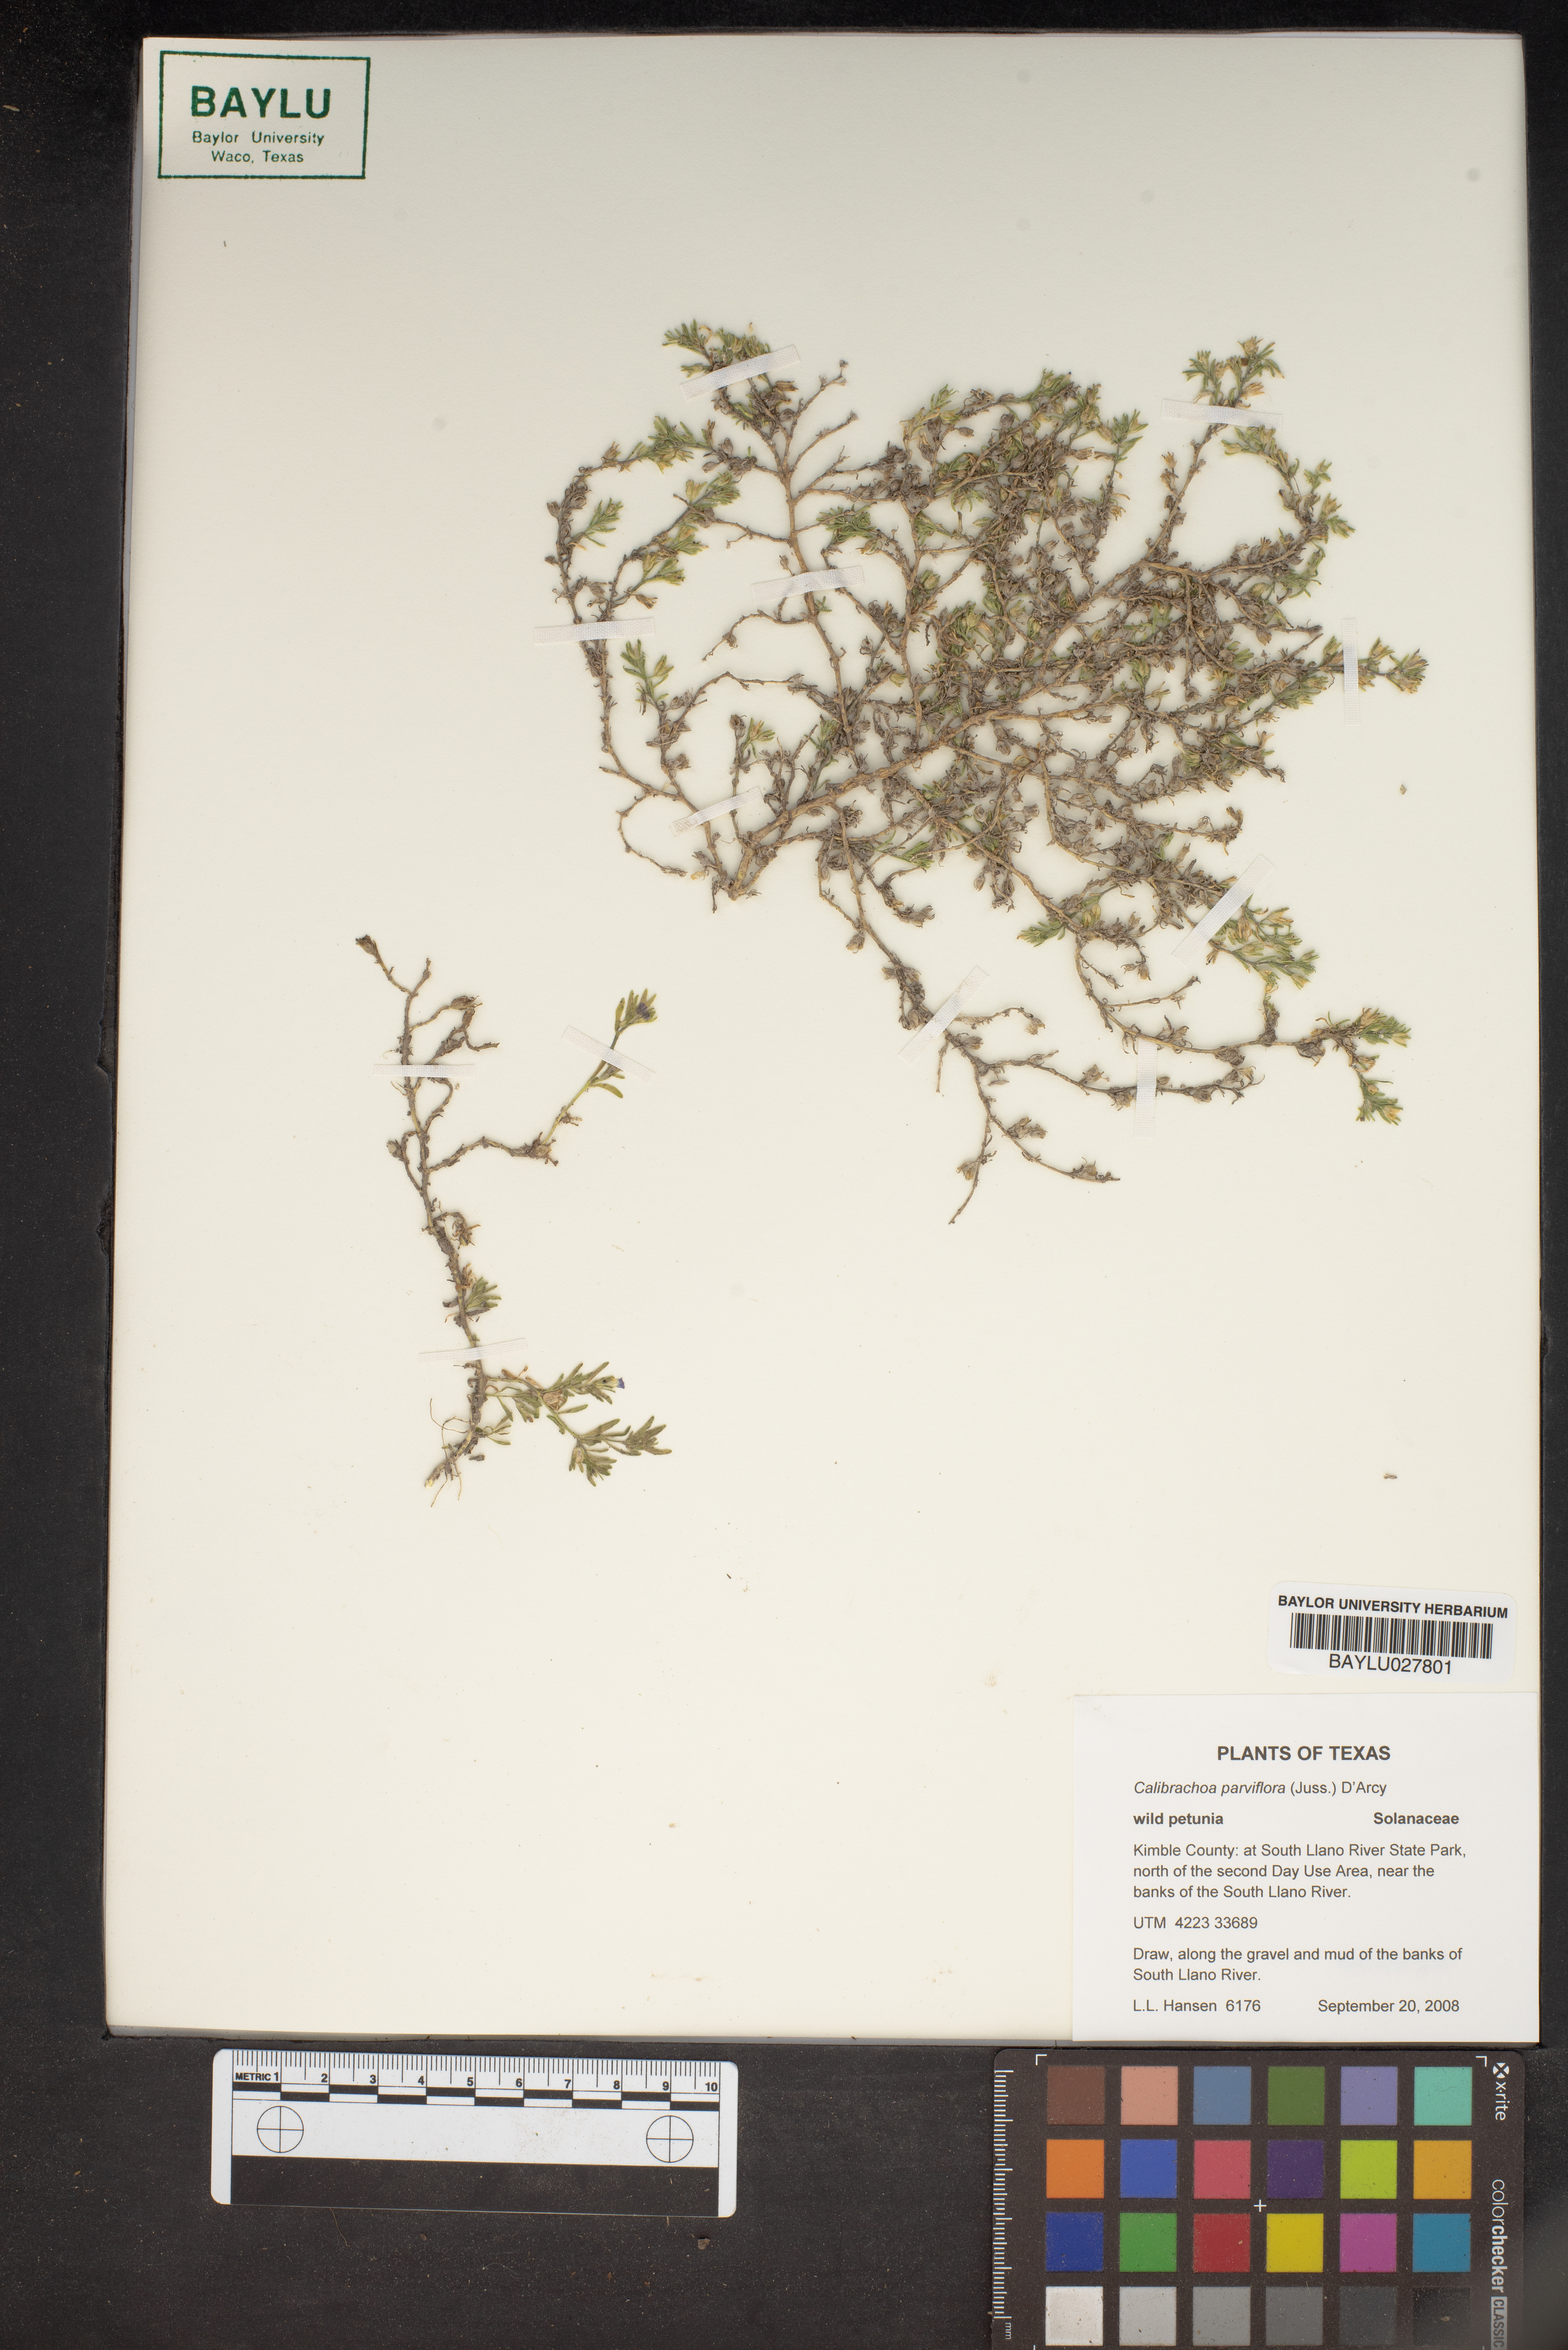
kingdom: Plantae
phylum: Tracheophyta
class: Magnoliopsida
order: Solanales
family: Solanaceae
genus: Calibrachoa
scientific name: Calibrachoa parviflora
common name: Seaside petunia
